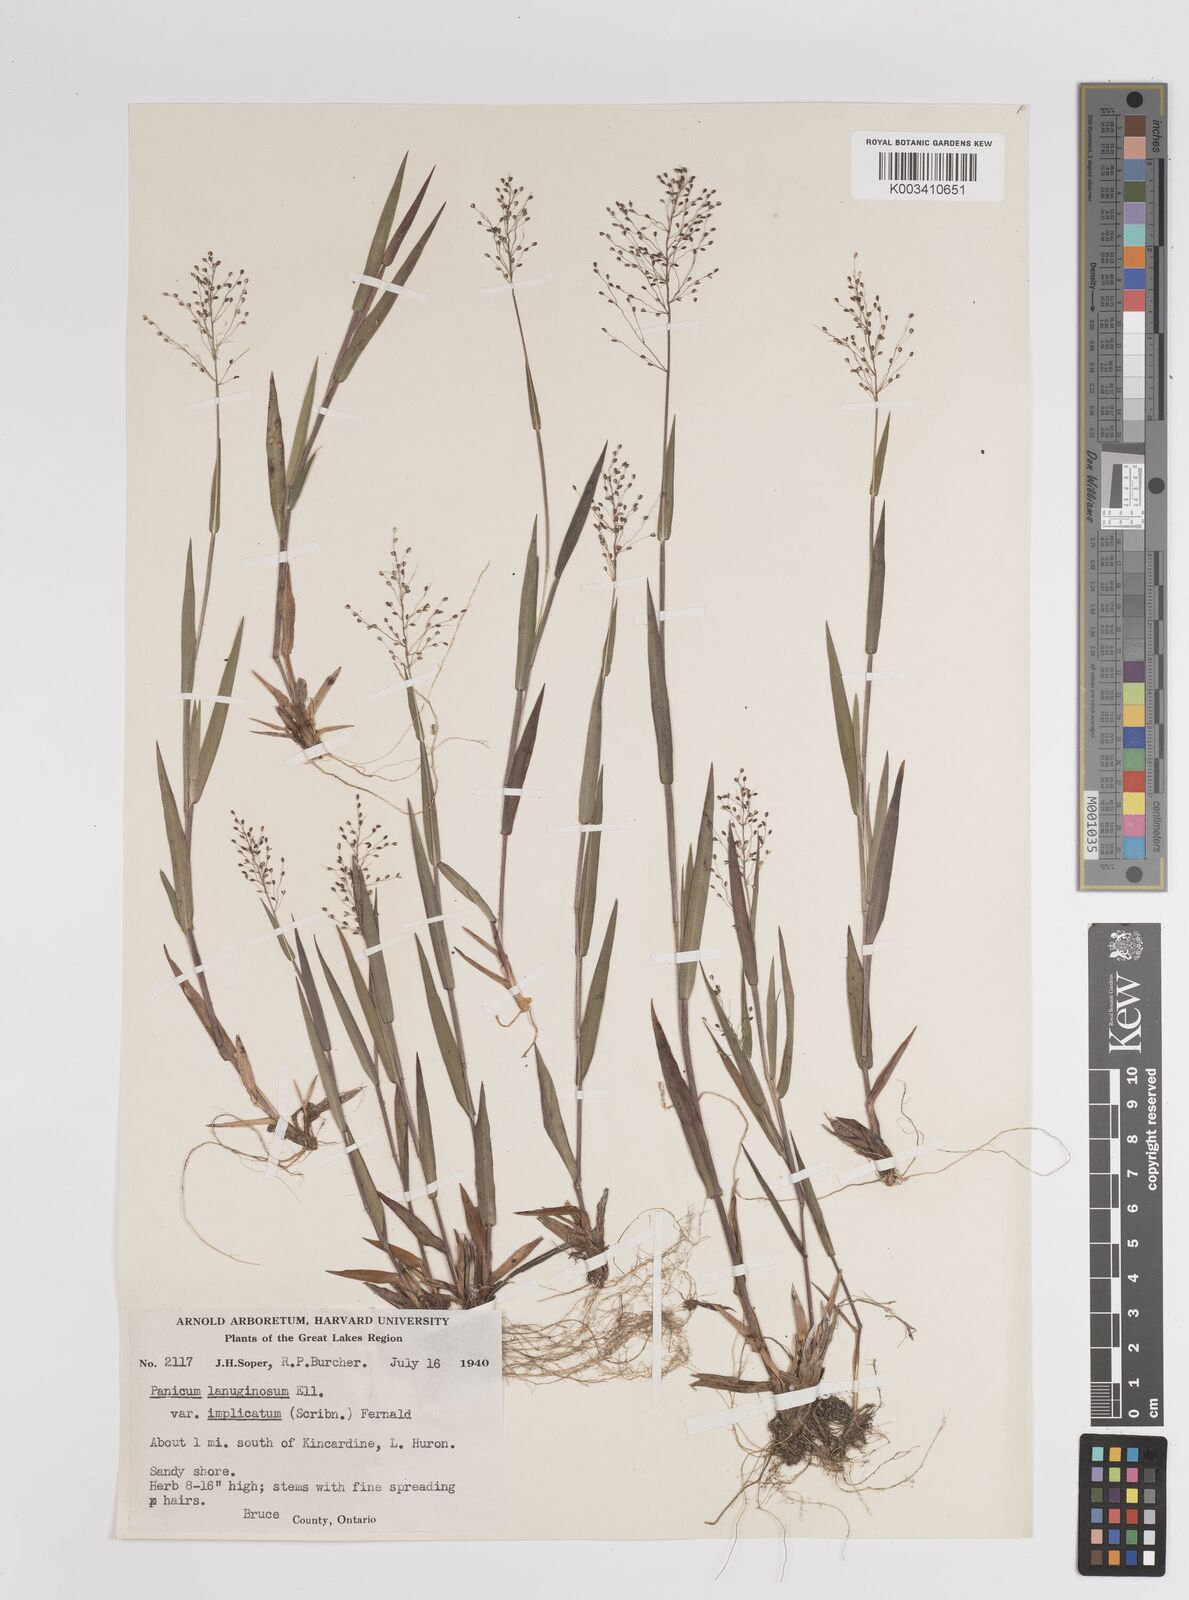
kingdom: Plantae
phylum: Tracheophyta
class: Liliopsida
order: Poales
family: Poaceae
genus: Dichanthelium
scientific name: Dichanthelium implicatum
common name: Slender-stemmed panicgrass
